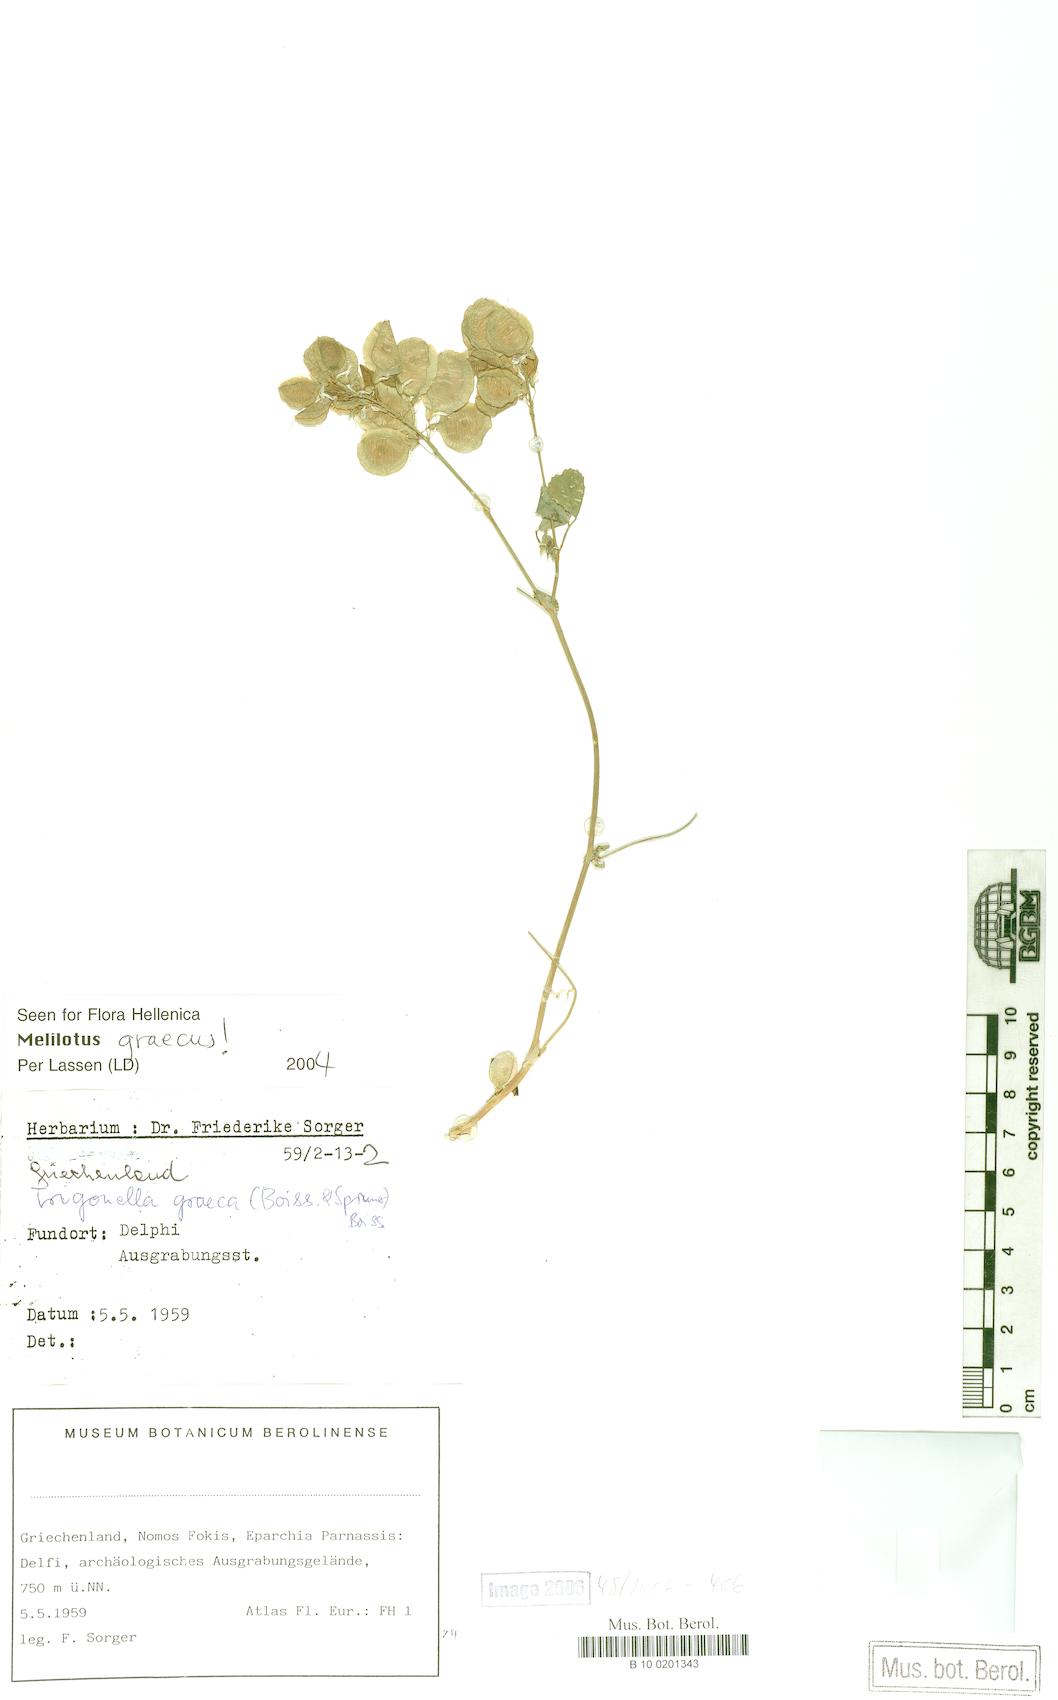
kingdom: Plantae
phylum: Tracheophyta
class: Magnoliopsida
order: Fabales
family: Fabaceae
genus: Trigonella
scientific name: Trigonella graeca
